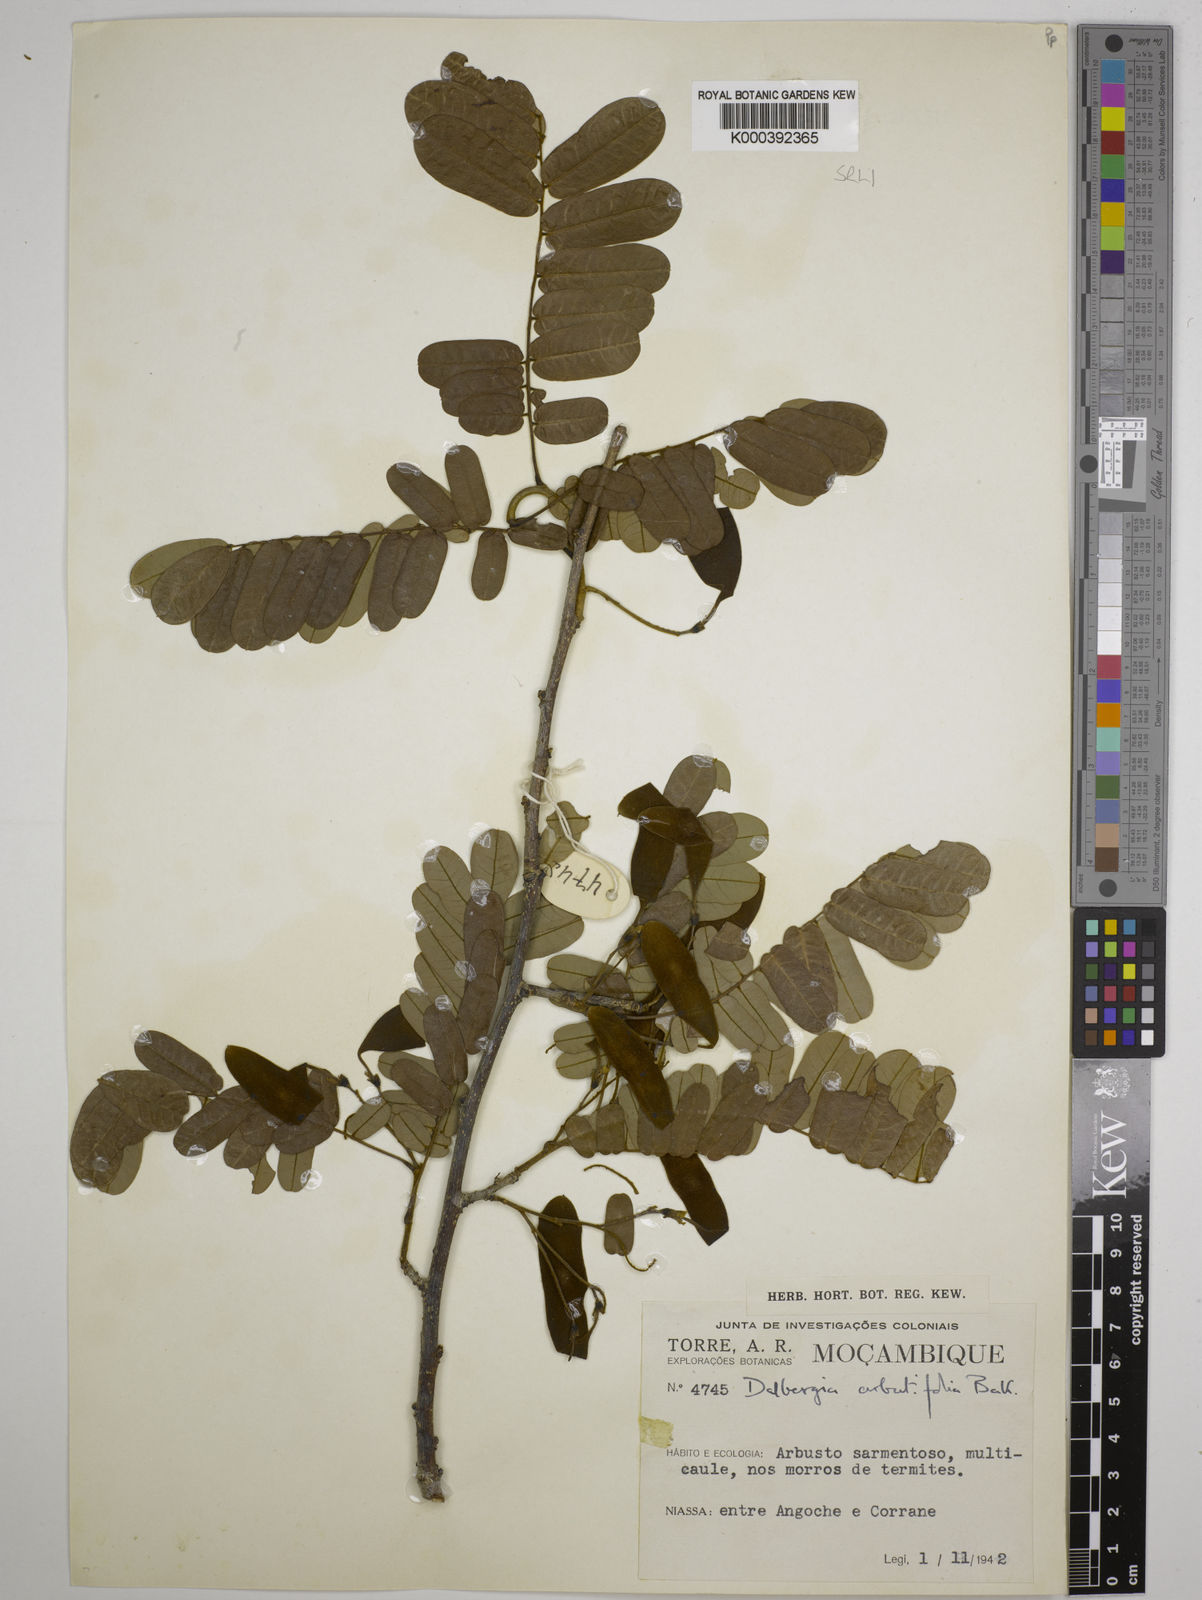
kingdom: Plantae
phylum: Tracheophyta
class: Magnoliopsida
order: Fabales
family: Fabaceae
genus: Dalbergia
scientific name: Dalbergia arbutifolia
